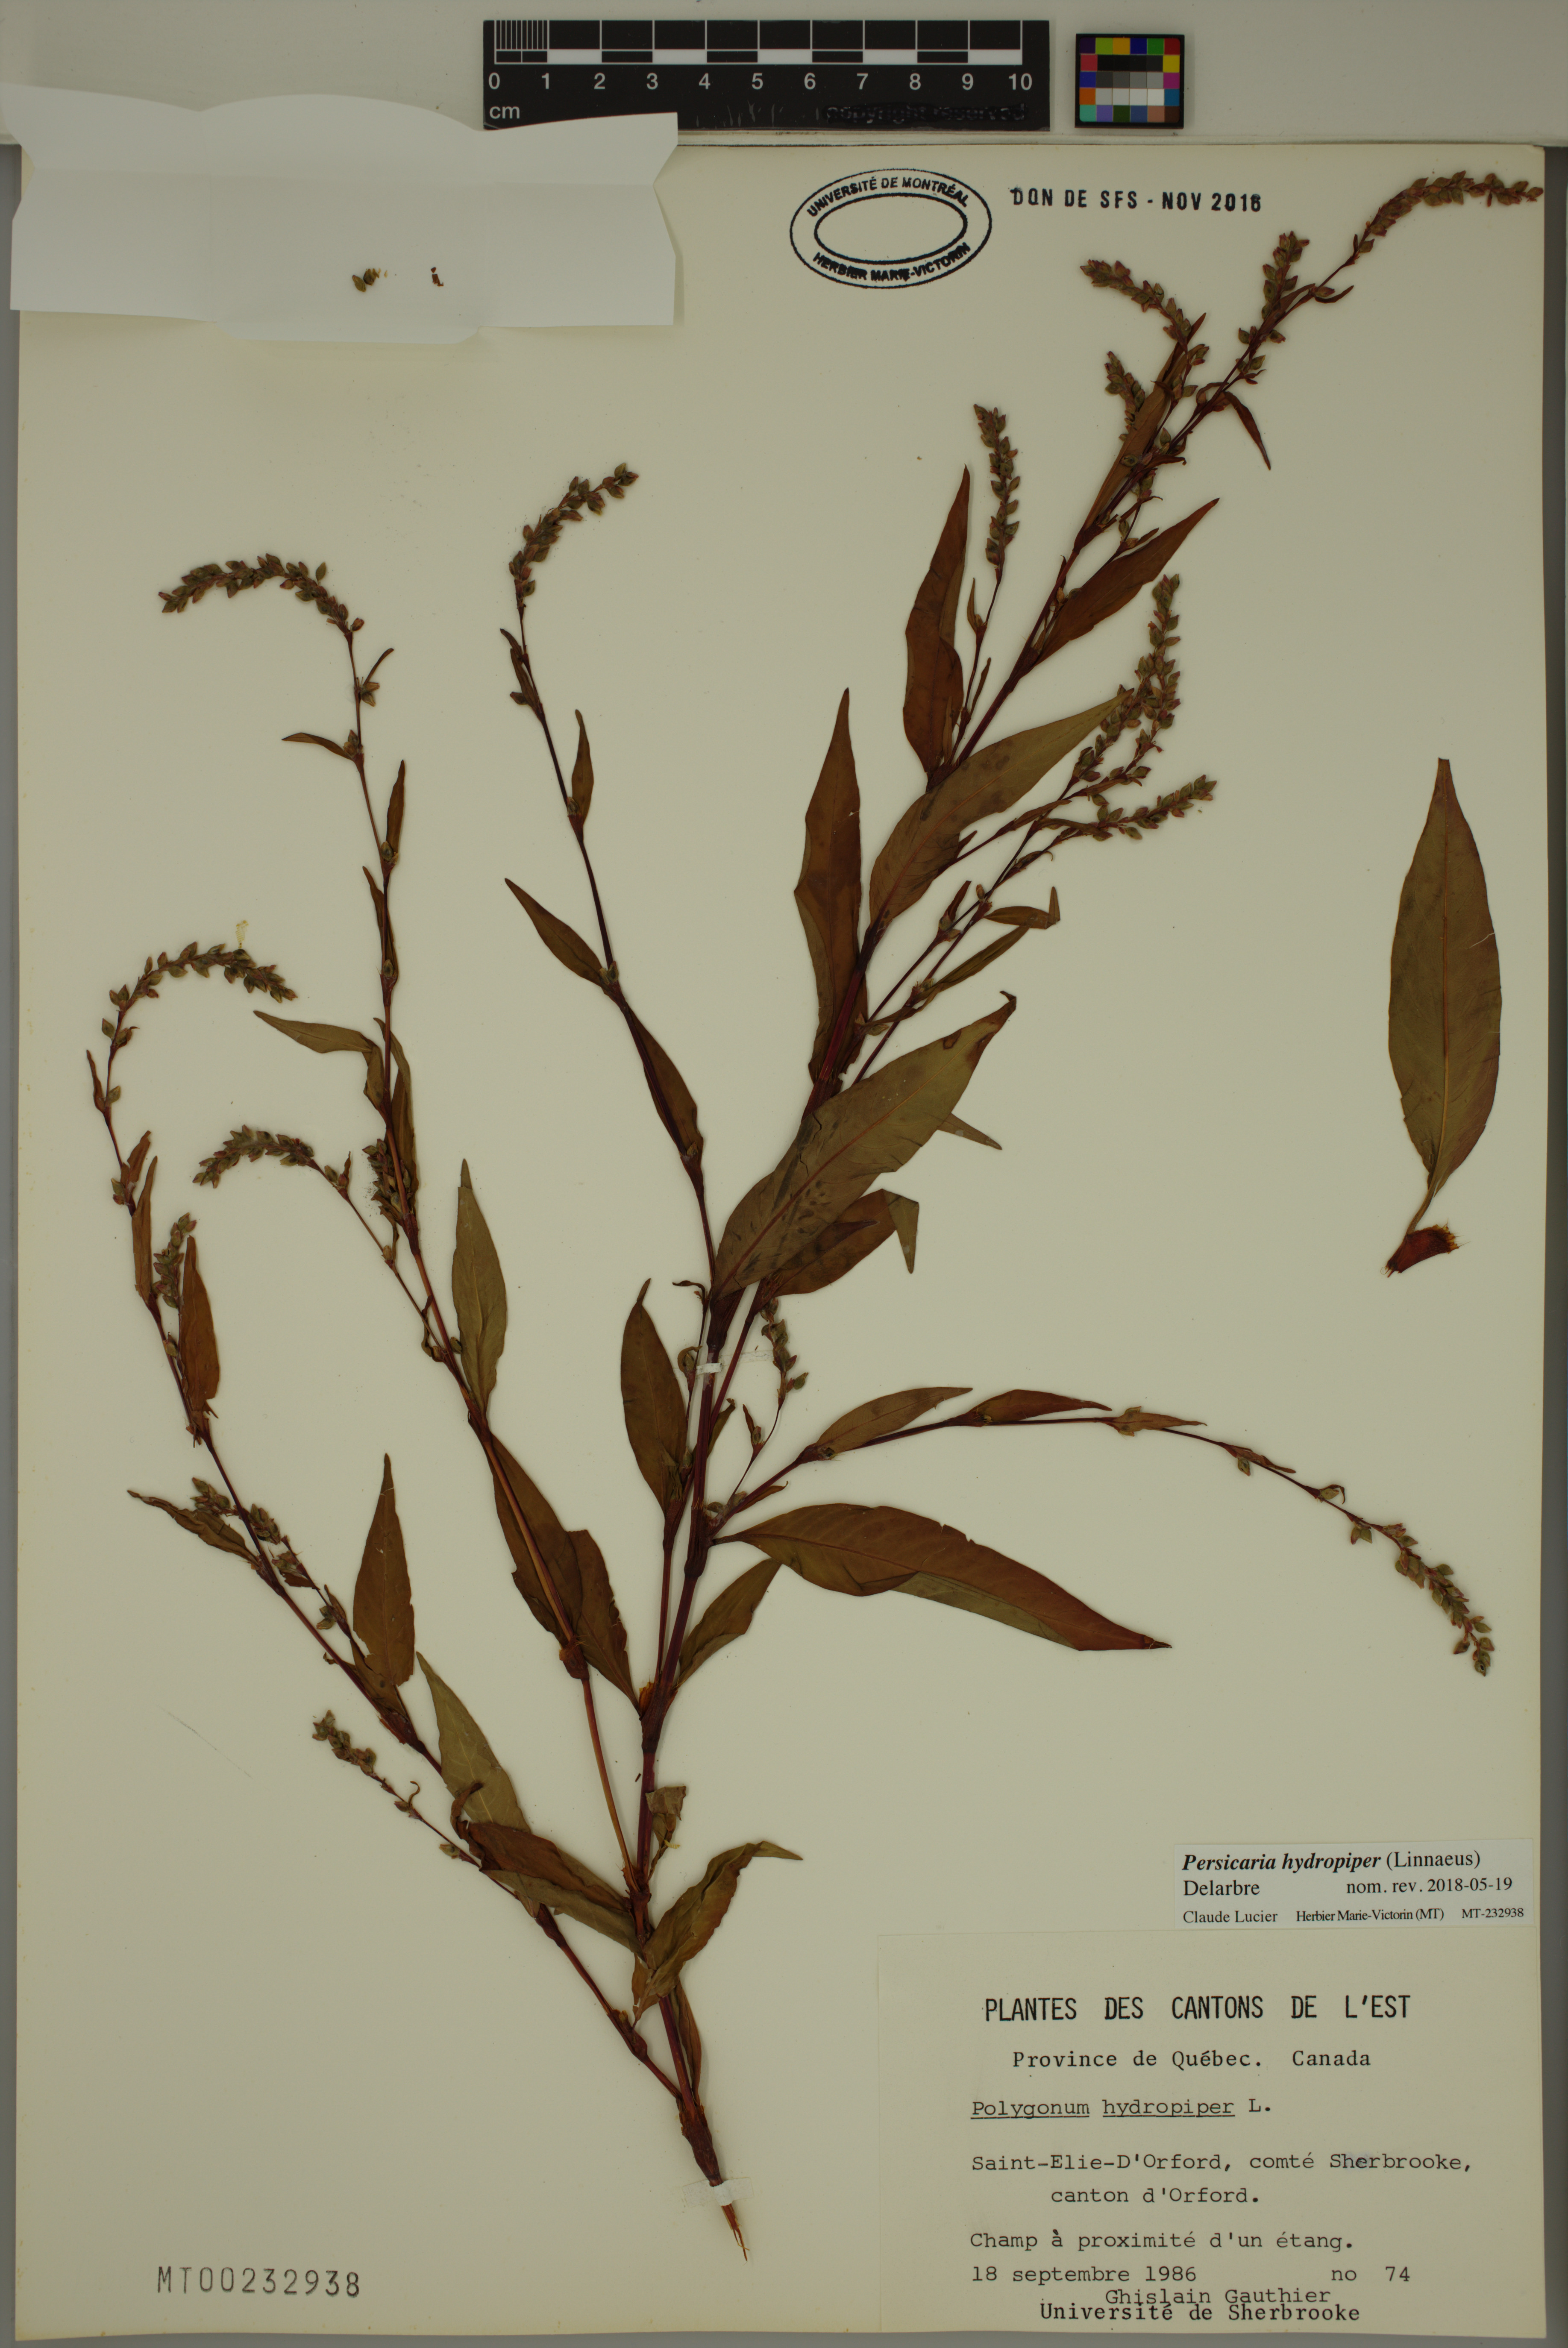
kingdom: Plantae
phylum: Tracheophyta
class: Magnoliopsida
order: Caryophyllales
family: Polygonaceae
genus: Persicaria
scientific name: Persicaria hydropiper
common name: Water-pepper
